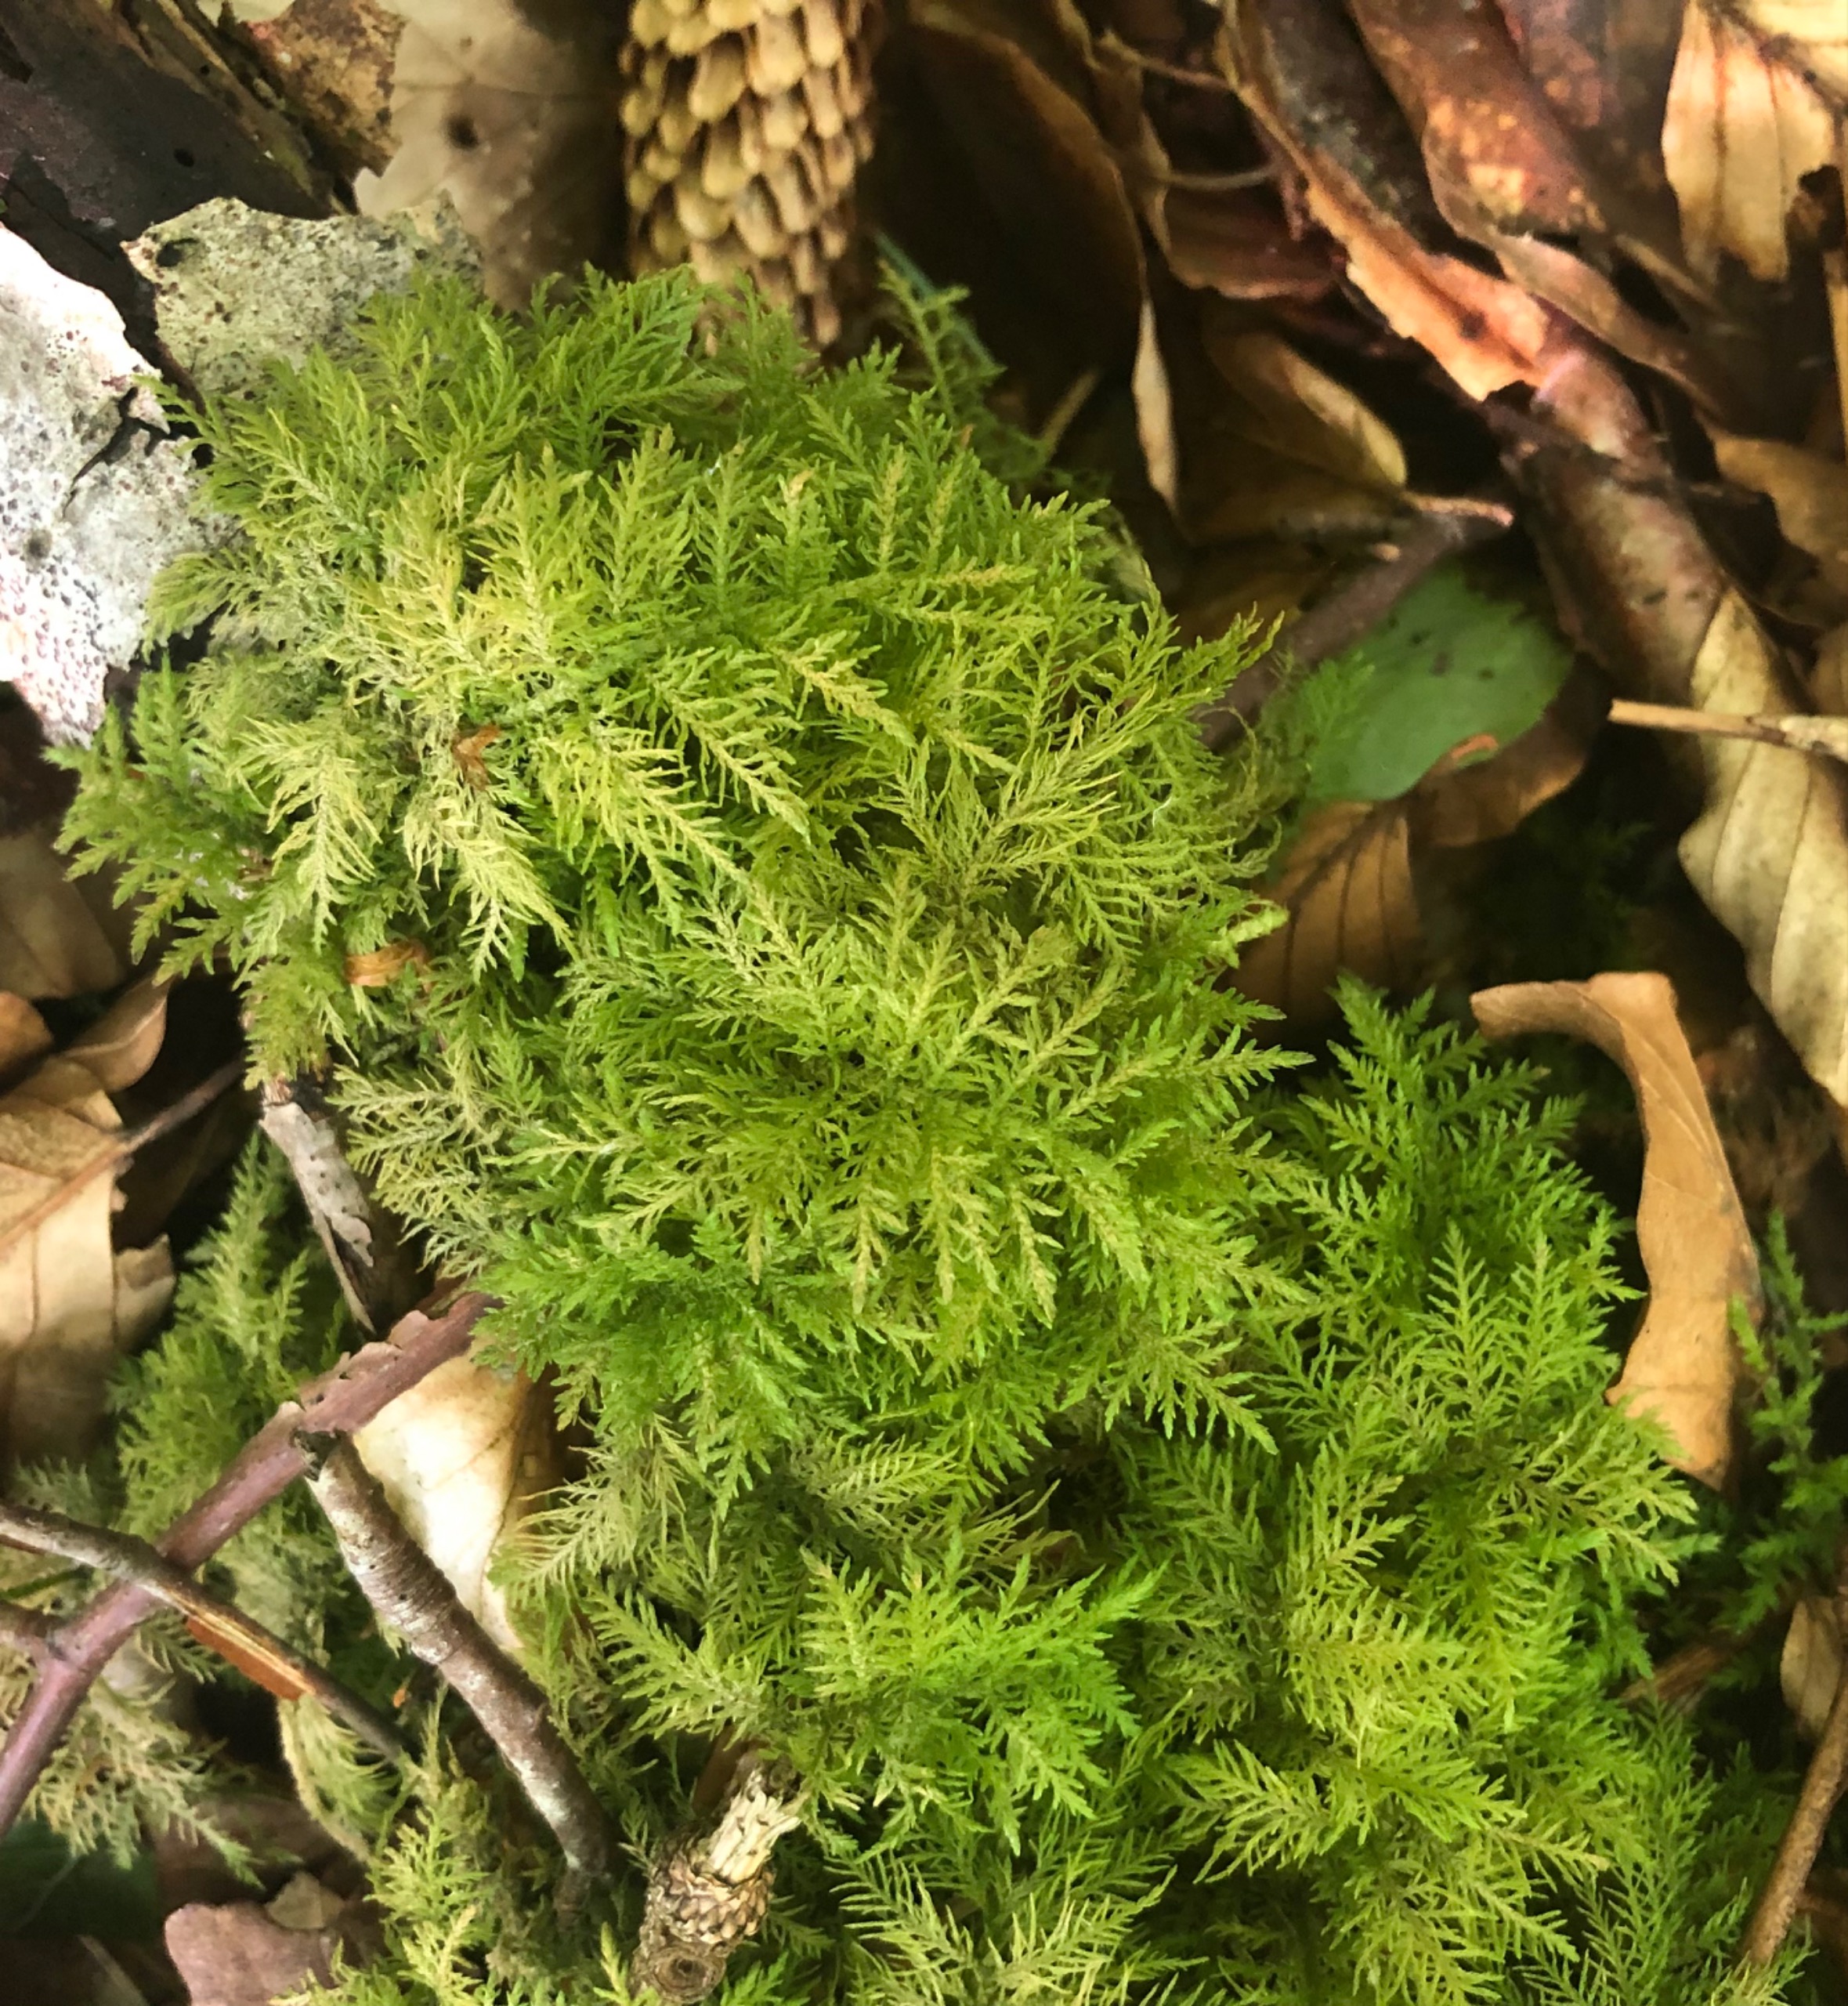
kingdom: Plantae
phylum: Bryophyta
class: Bryopsida
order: Hypnales
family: Thuidiaceae
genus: Thuidium
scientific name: Thuidium tamariscinum
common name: Pryd-bregnemos
